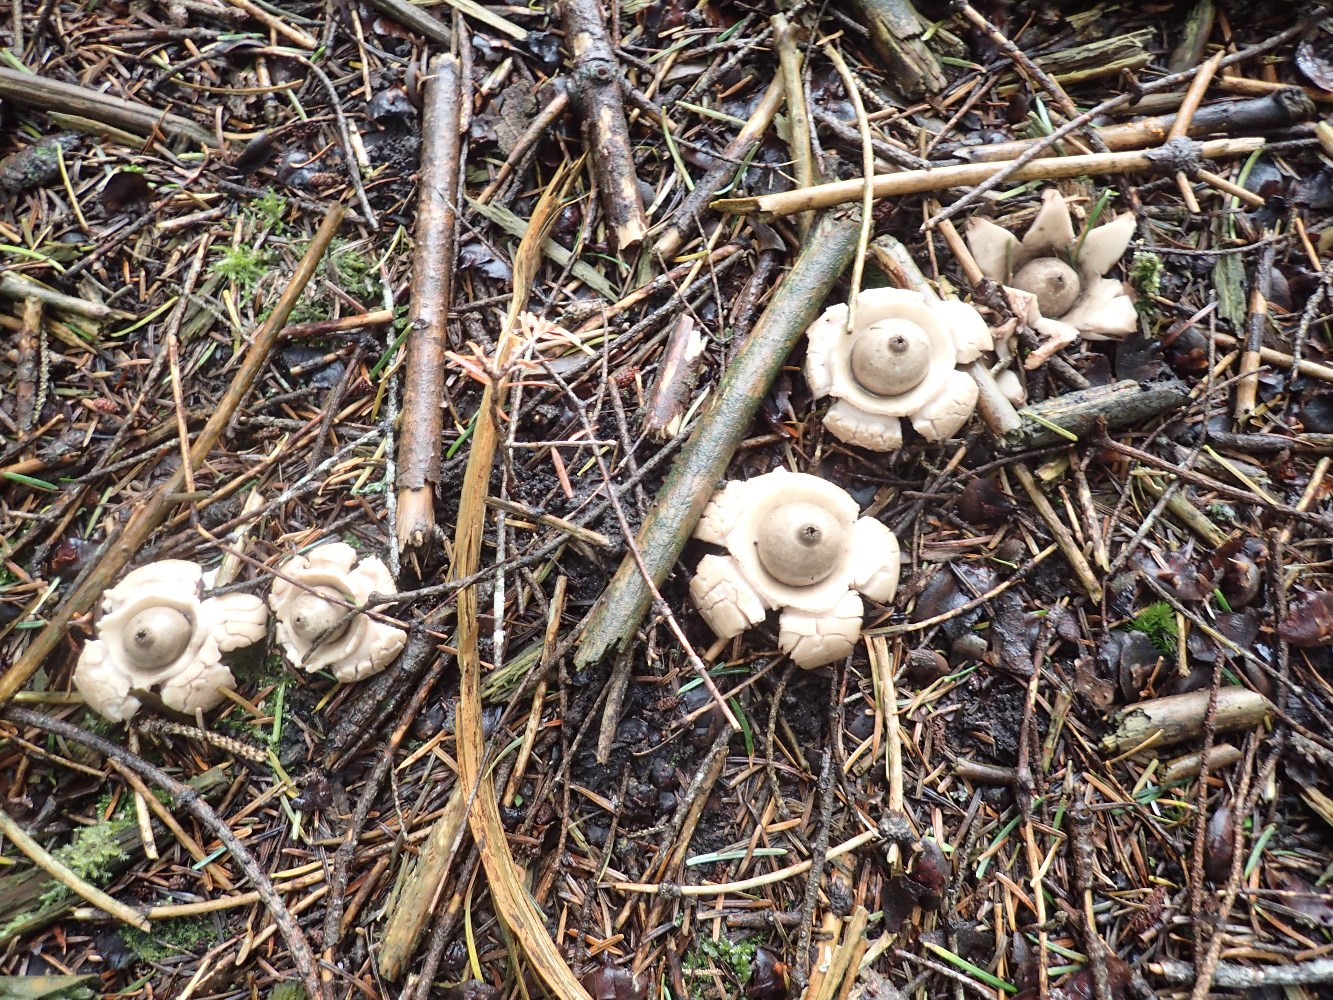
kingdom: Fungi
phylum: Basidiomycota
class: Agaricomycetes
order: Geastrales
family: Geastraceae
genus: Geastrum
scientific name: Geastrum michelianum
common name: kødet stjernebold
